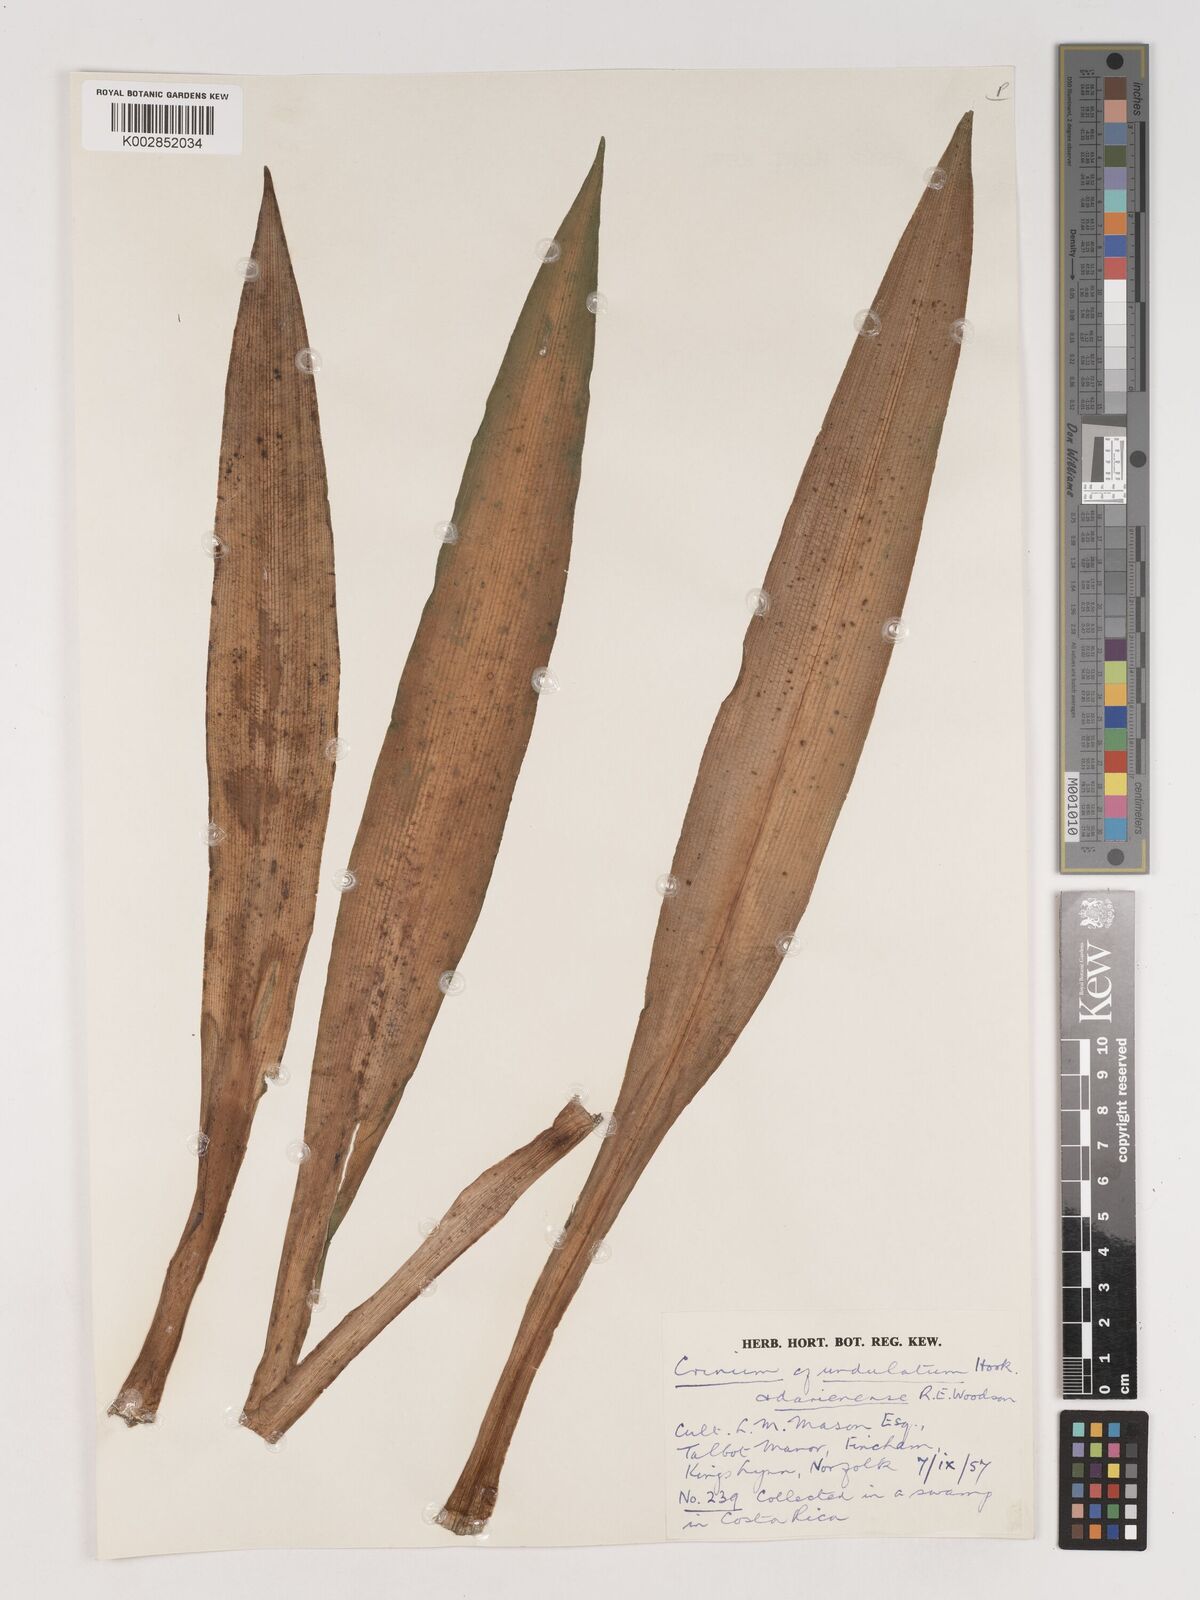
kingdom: Plantae
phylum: Tracheophyta
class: Liliopsida
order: Asparagales
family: Amaryllidaceae
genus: Crinum
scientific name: Crinum undulatum
